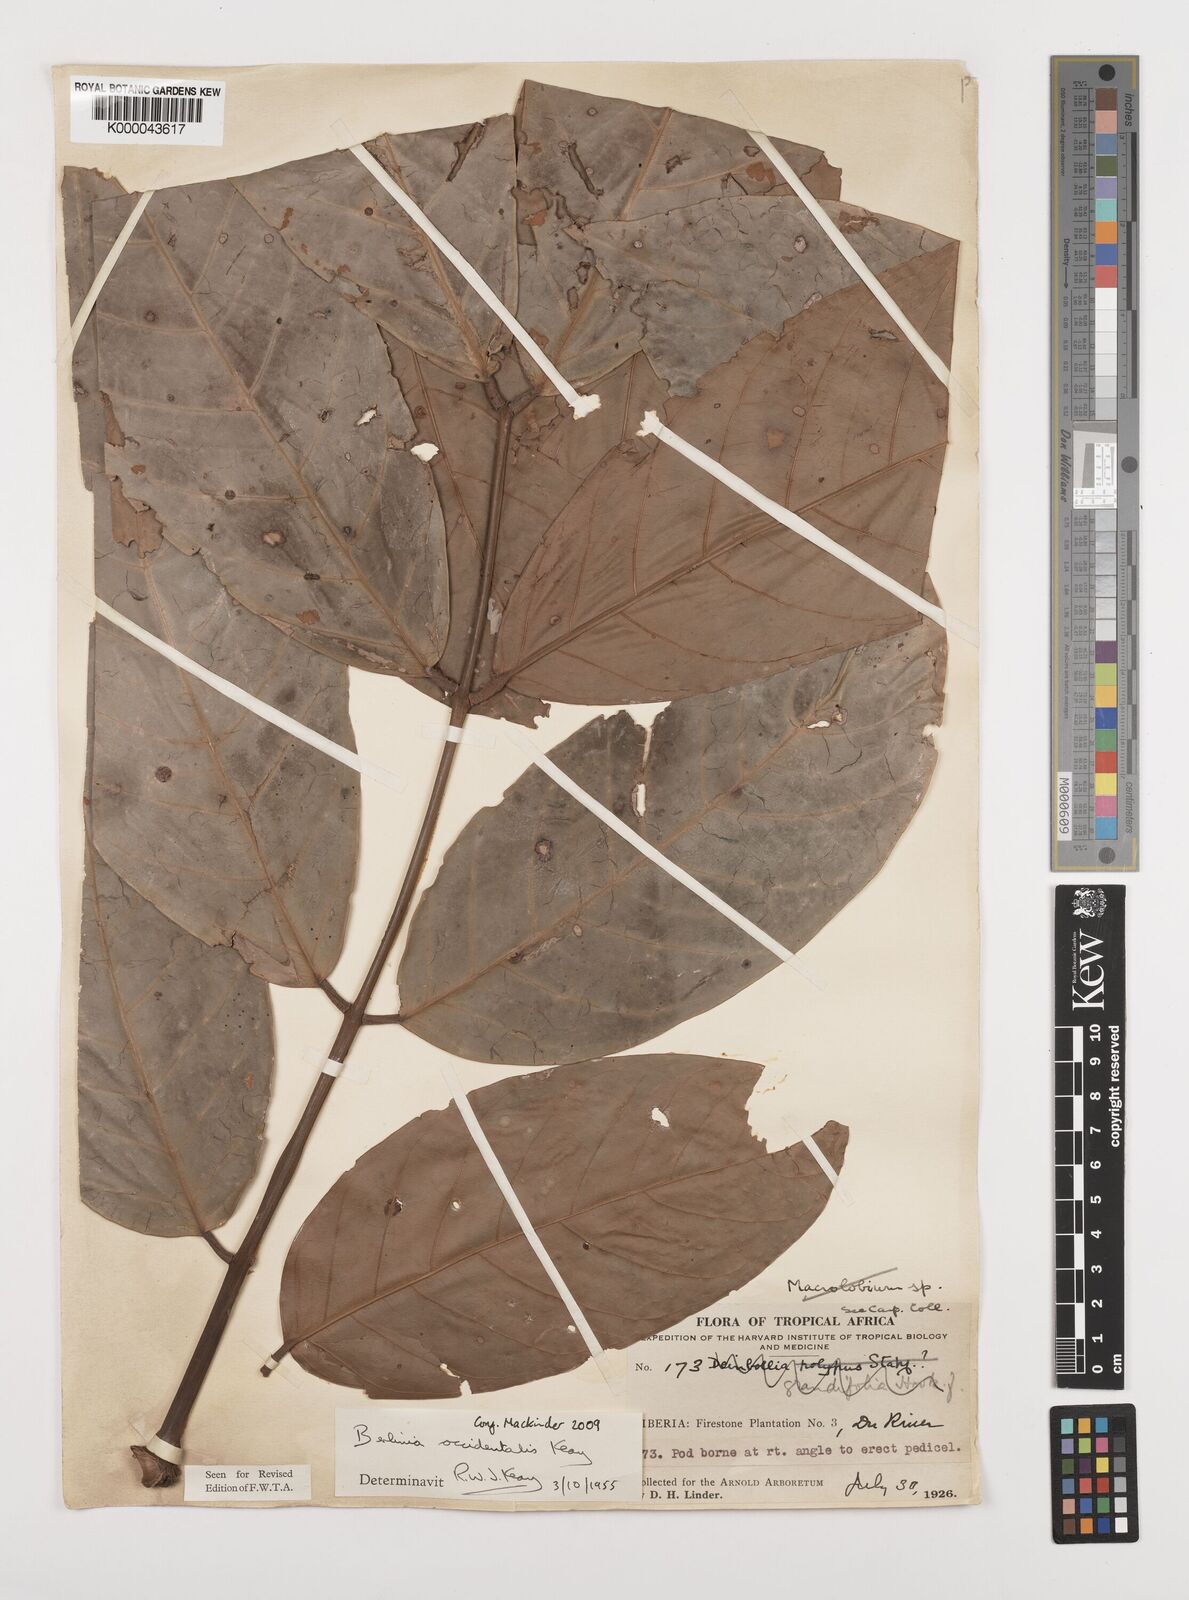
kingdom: Plantae
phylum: Tracheophyta
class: Magnoliopsida
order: Fabales
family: Fabaceae
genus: Berlinia
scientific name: Berlinia occidentalis
